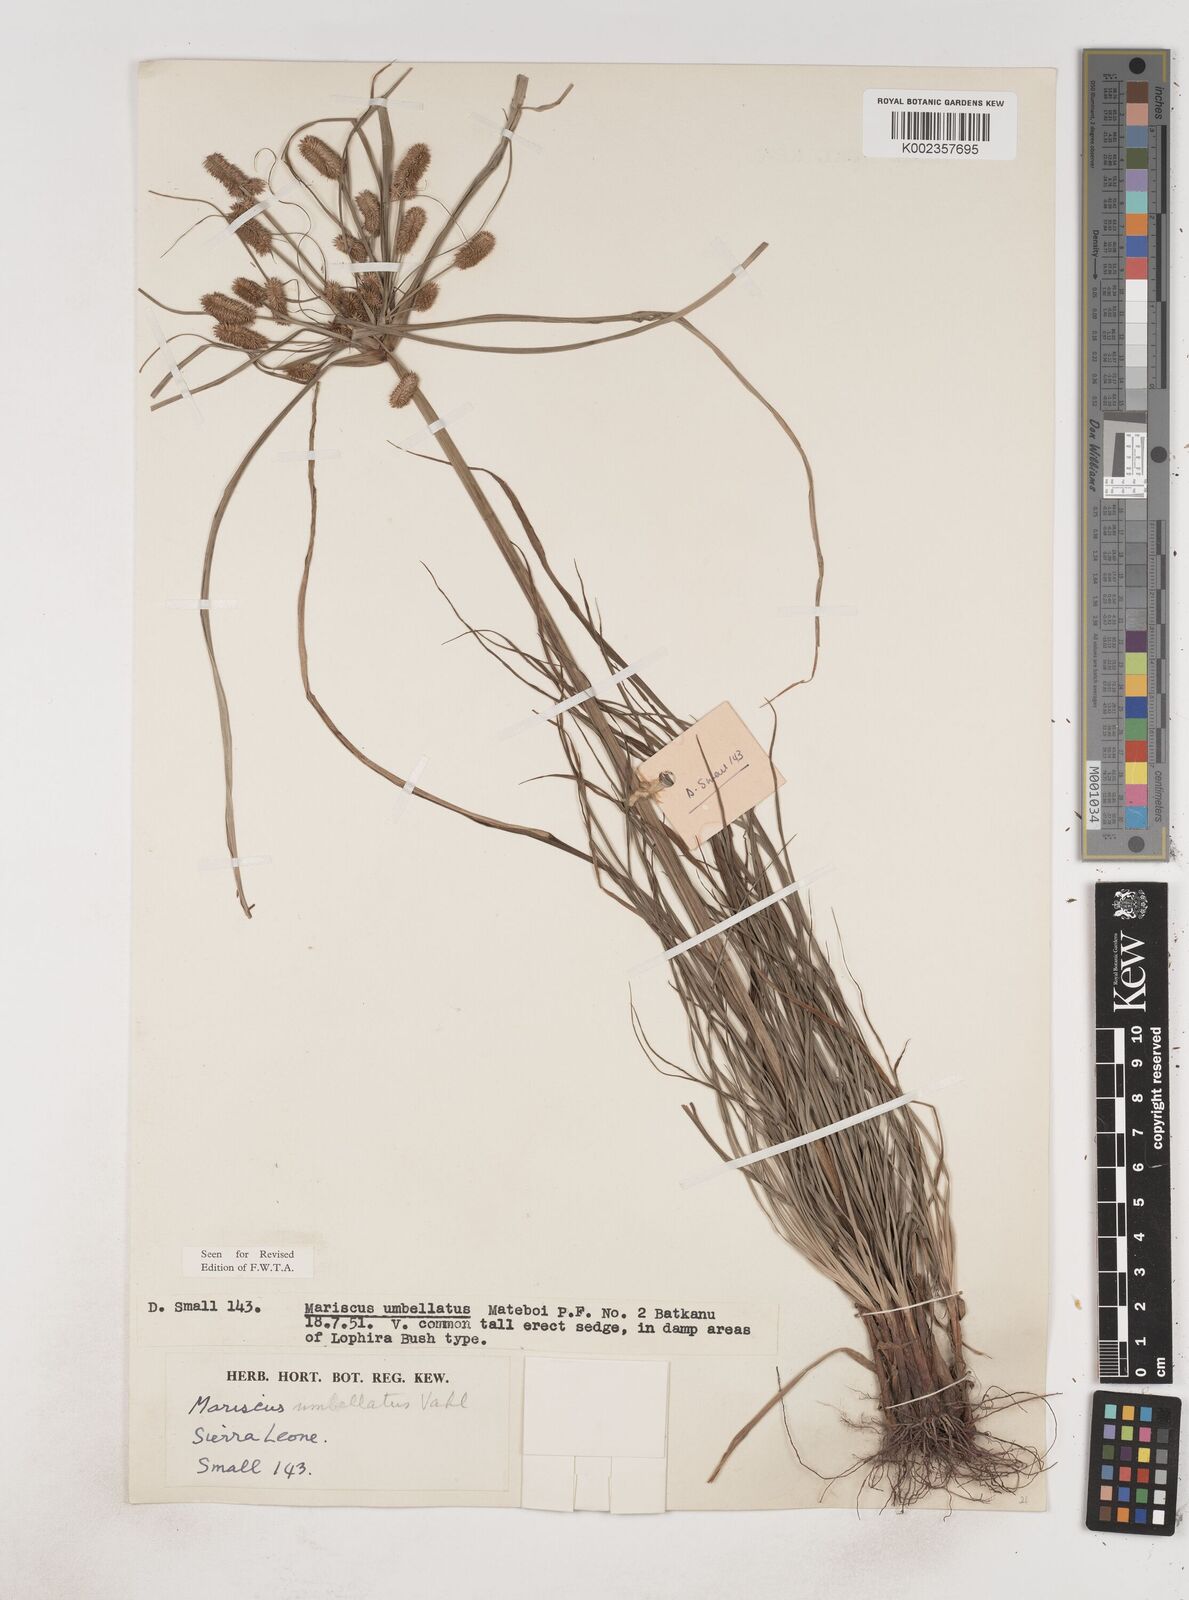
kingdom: Plantae
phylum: Tracheophyta
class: Liliopsida
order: Poales
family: Cyperaceae
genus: Cyperus
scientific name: Cyperus sublimis
